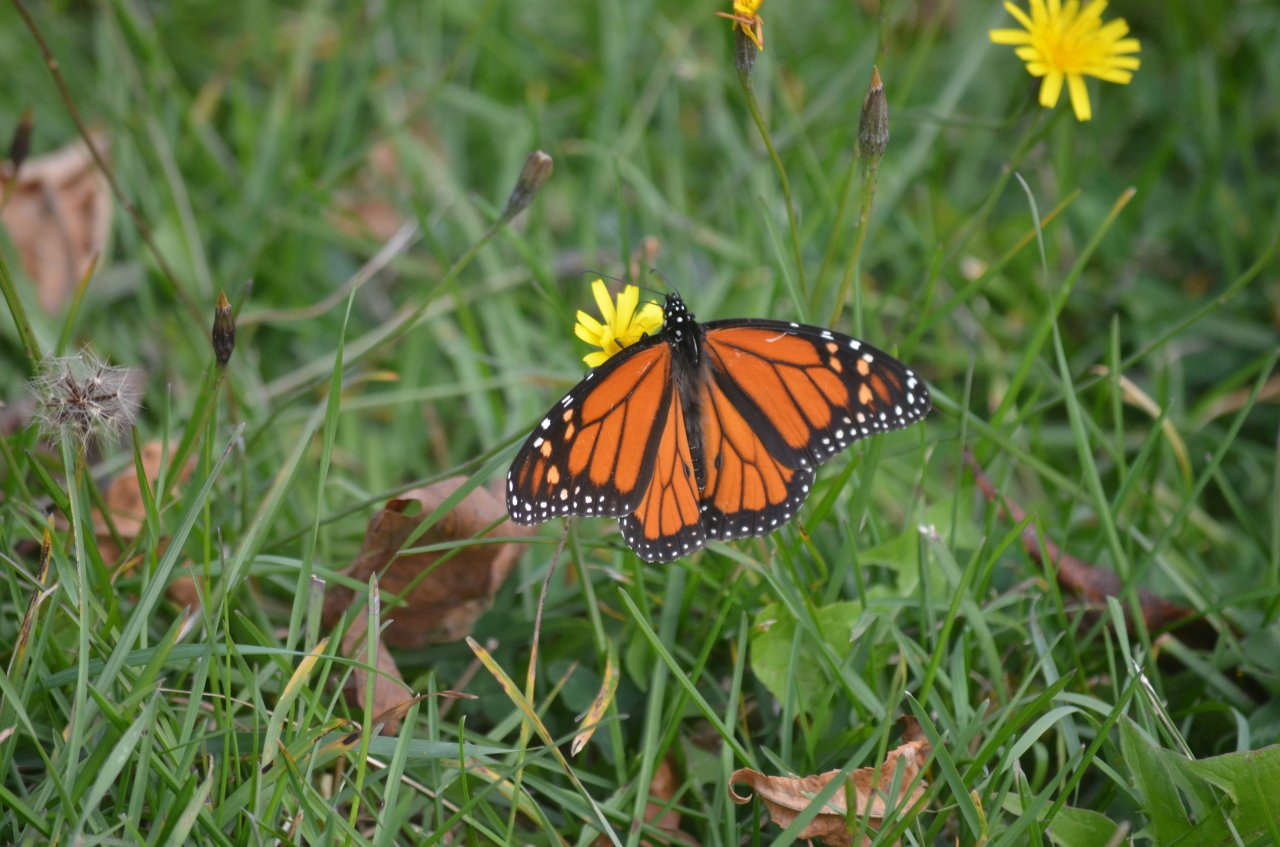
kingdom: Animalia
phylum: Arthropoda
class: Insecta
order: Lepidoptera
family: Nymphalidae
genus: Danaus
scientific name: Danaus plexippus
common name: Monarch
